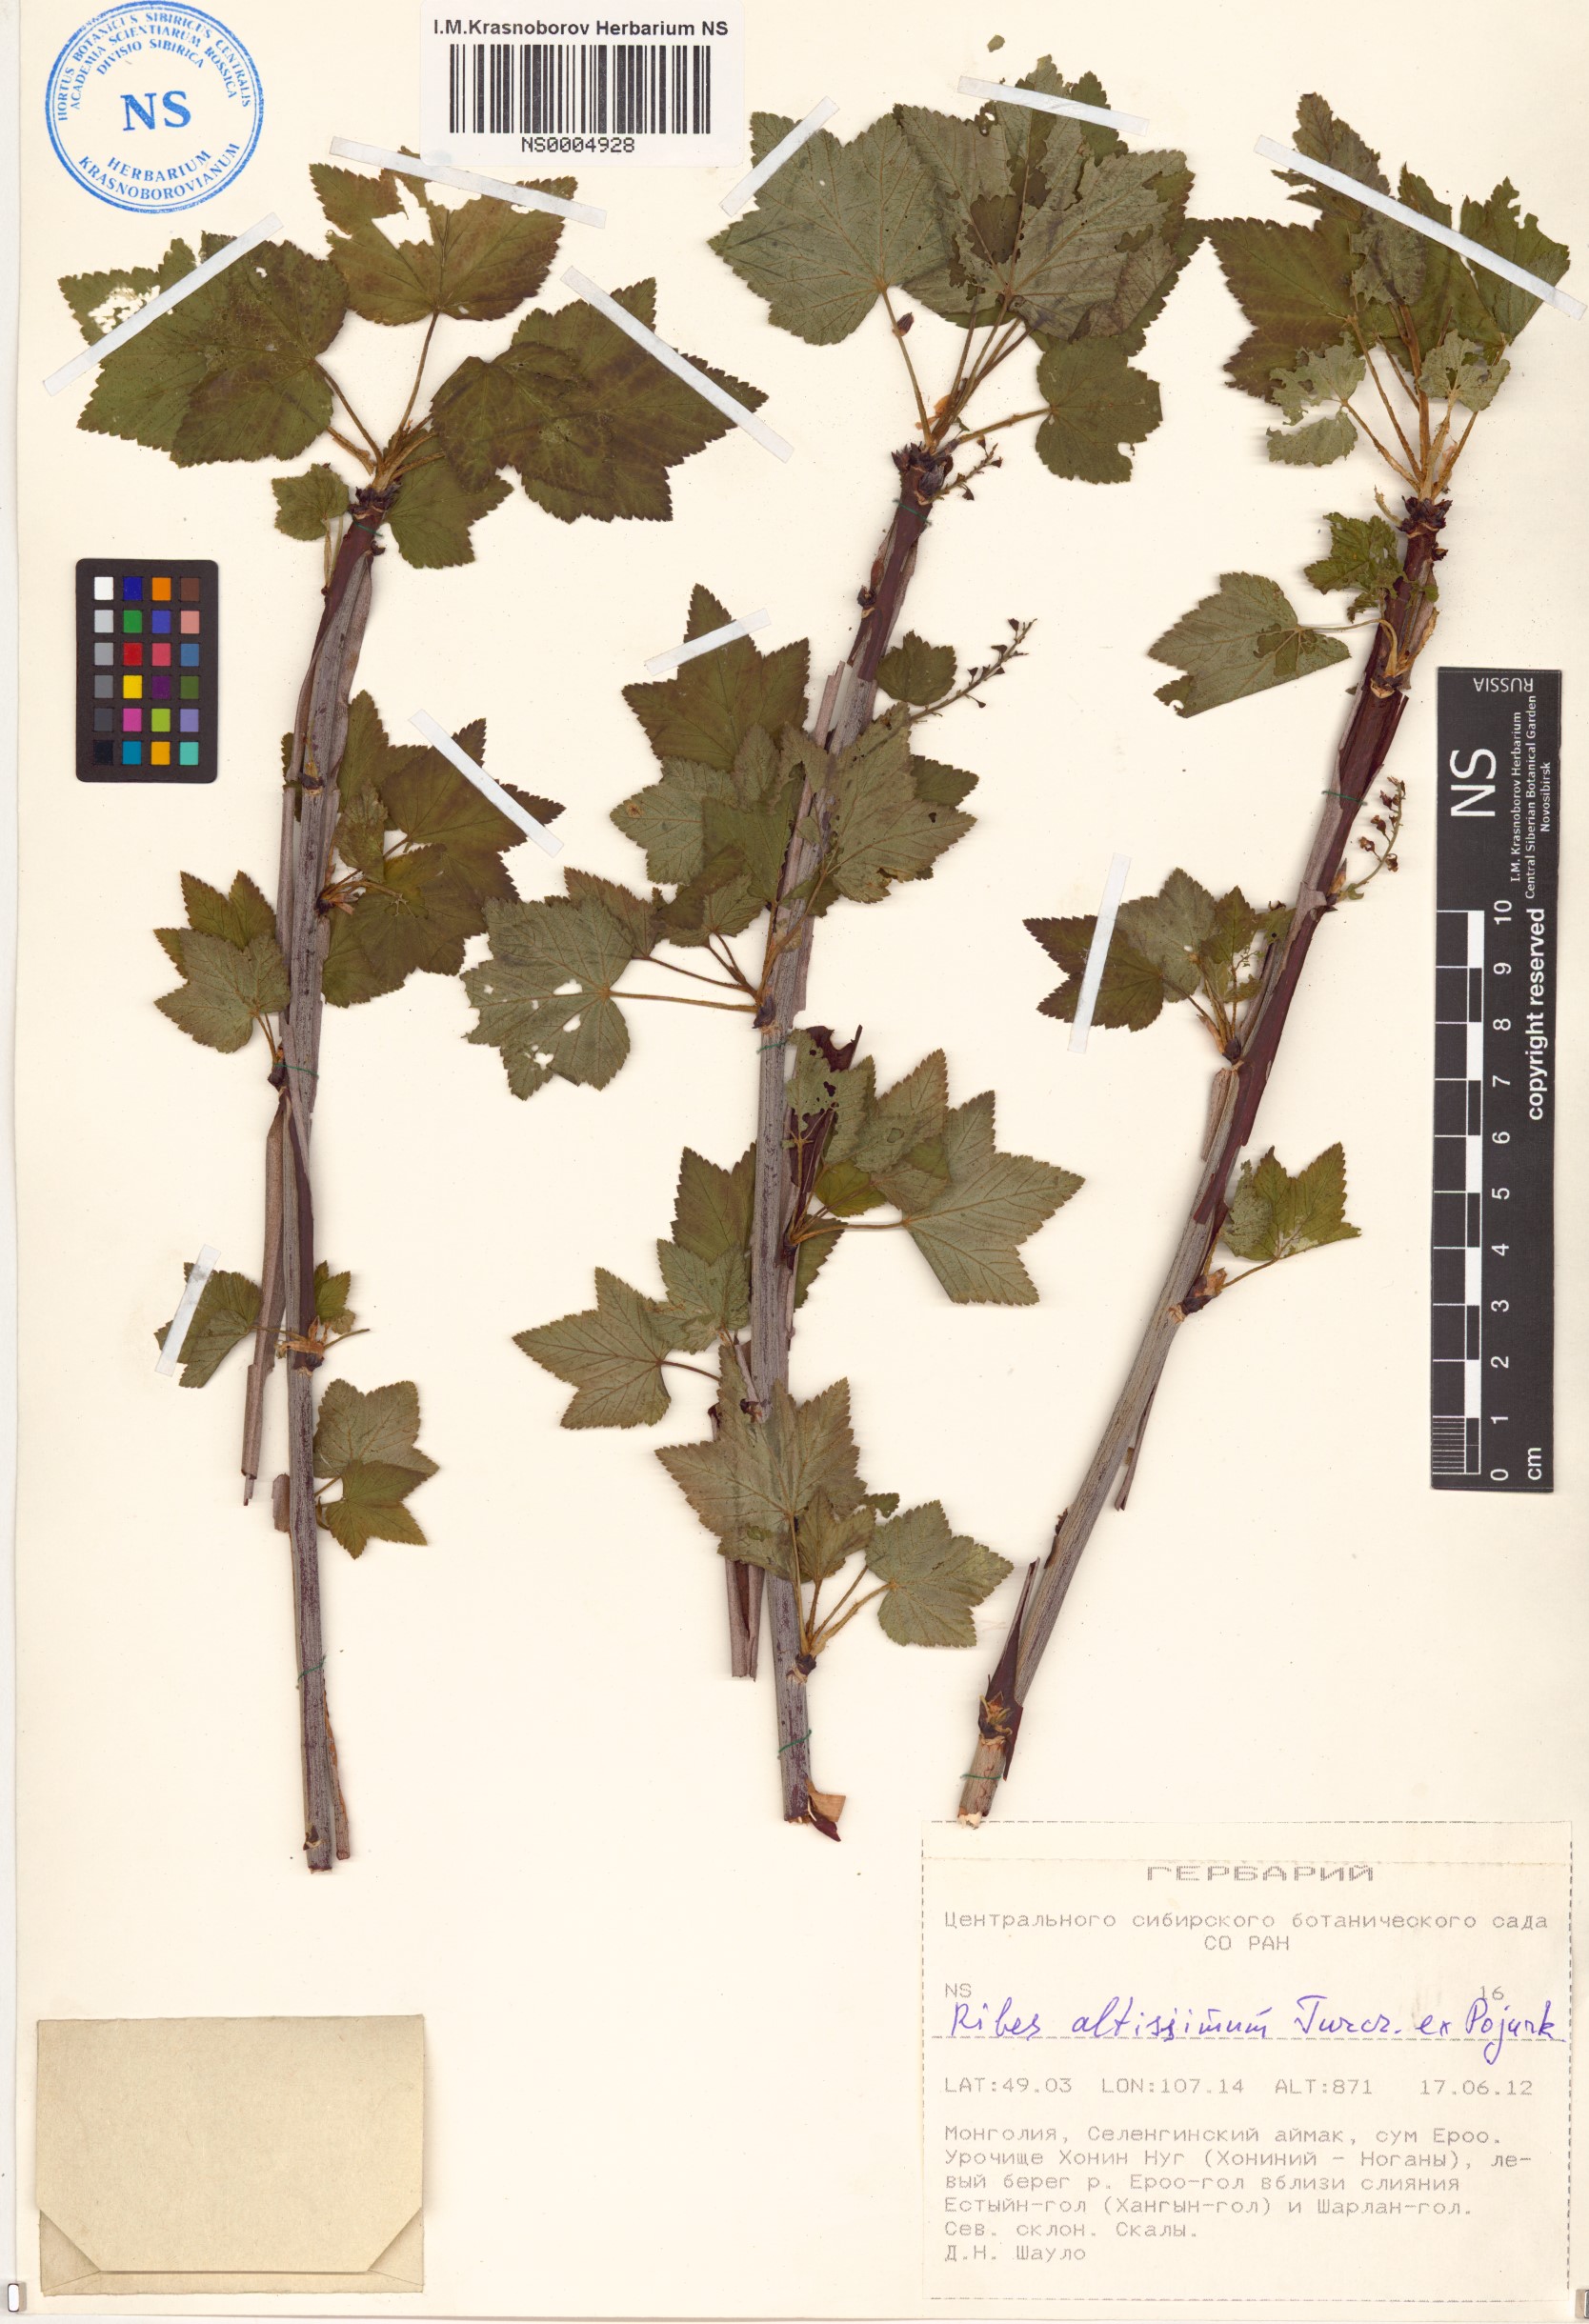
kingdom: Plantae
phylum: Tracheophyta
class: Magnoliopsida
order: Saxifragales
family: Grossulariaceae
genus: Ribes
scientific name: Ribes petraeum
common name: Rock currant
